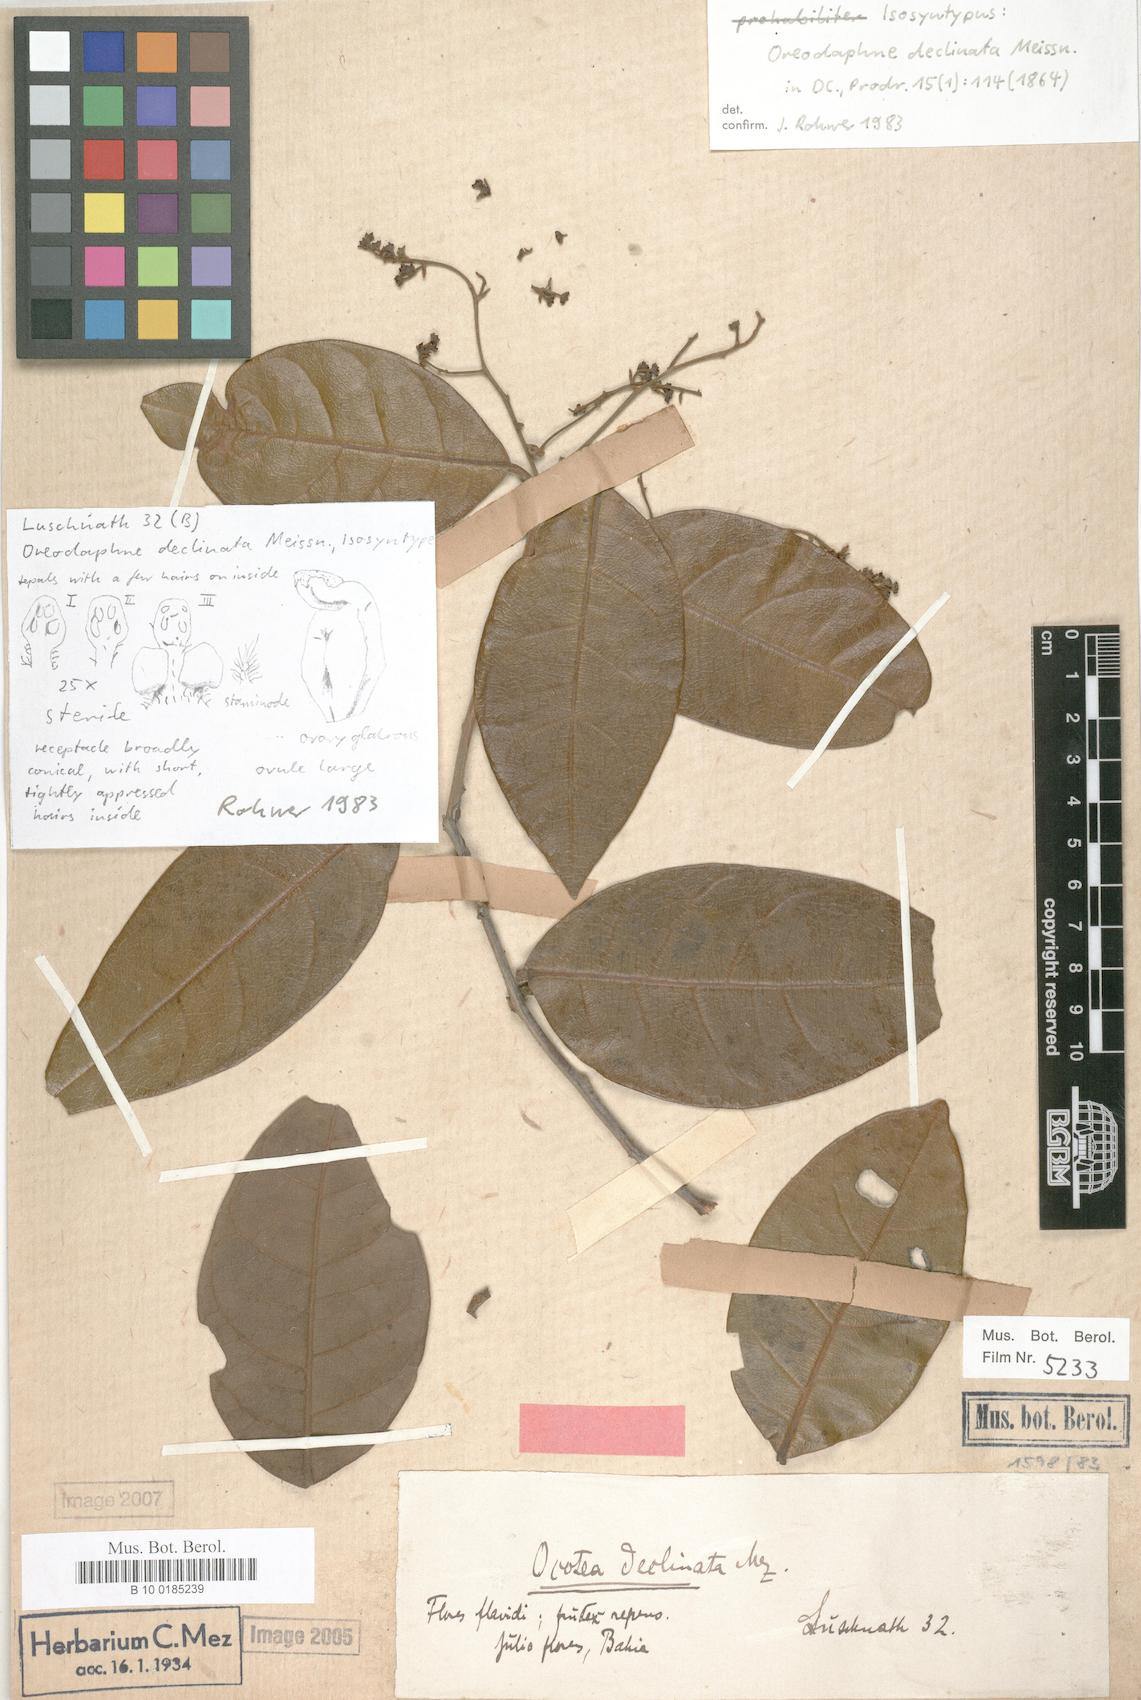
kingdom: Plantae
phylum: Tracheophyta
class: Magnoliopsida
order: Laurales
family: Lauraceae
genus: Ocotea
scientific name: Ocotea deflexa
